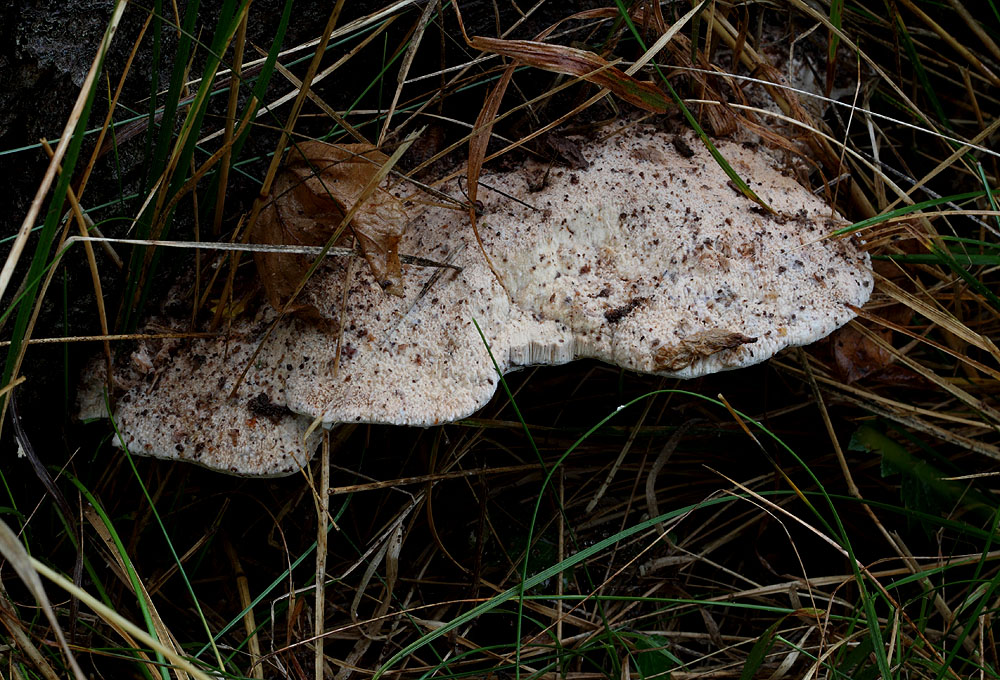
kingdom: Fungi
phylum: Basidiomycota
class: Agaricomycetes
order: Polyporales
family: Meruliaceae
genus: Pappia
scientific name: Pappia fissilis
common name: rosa fedtporesvamp
